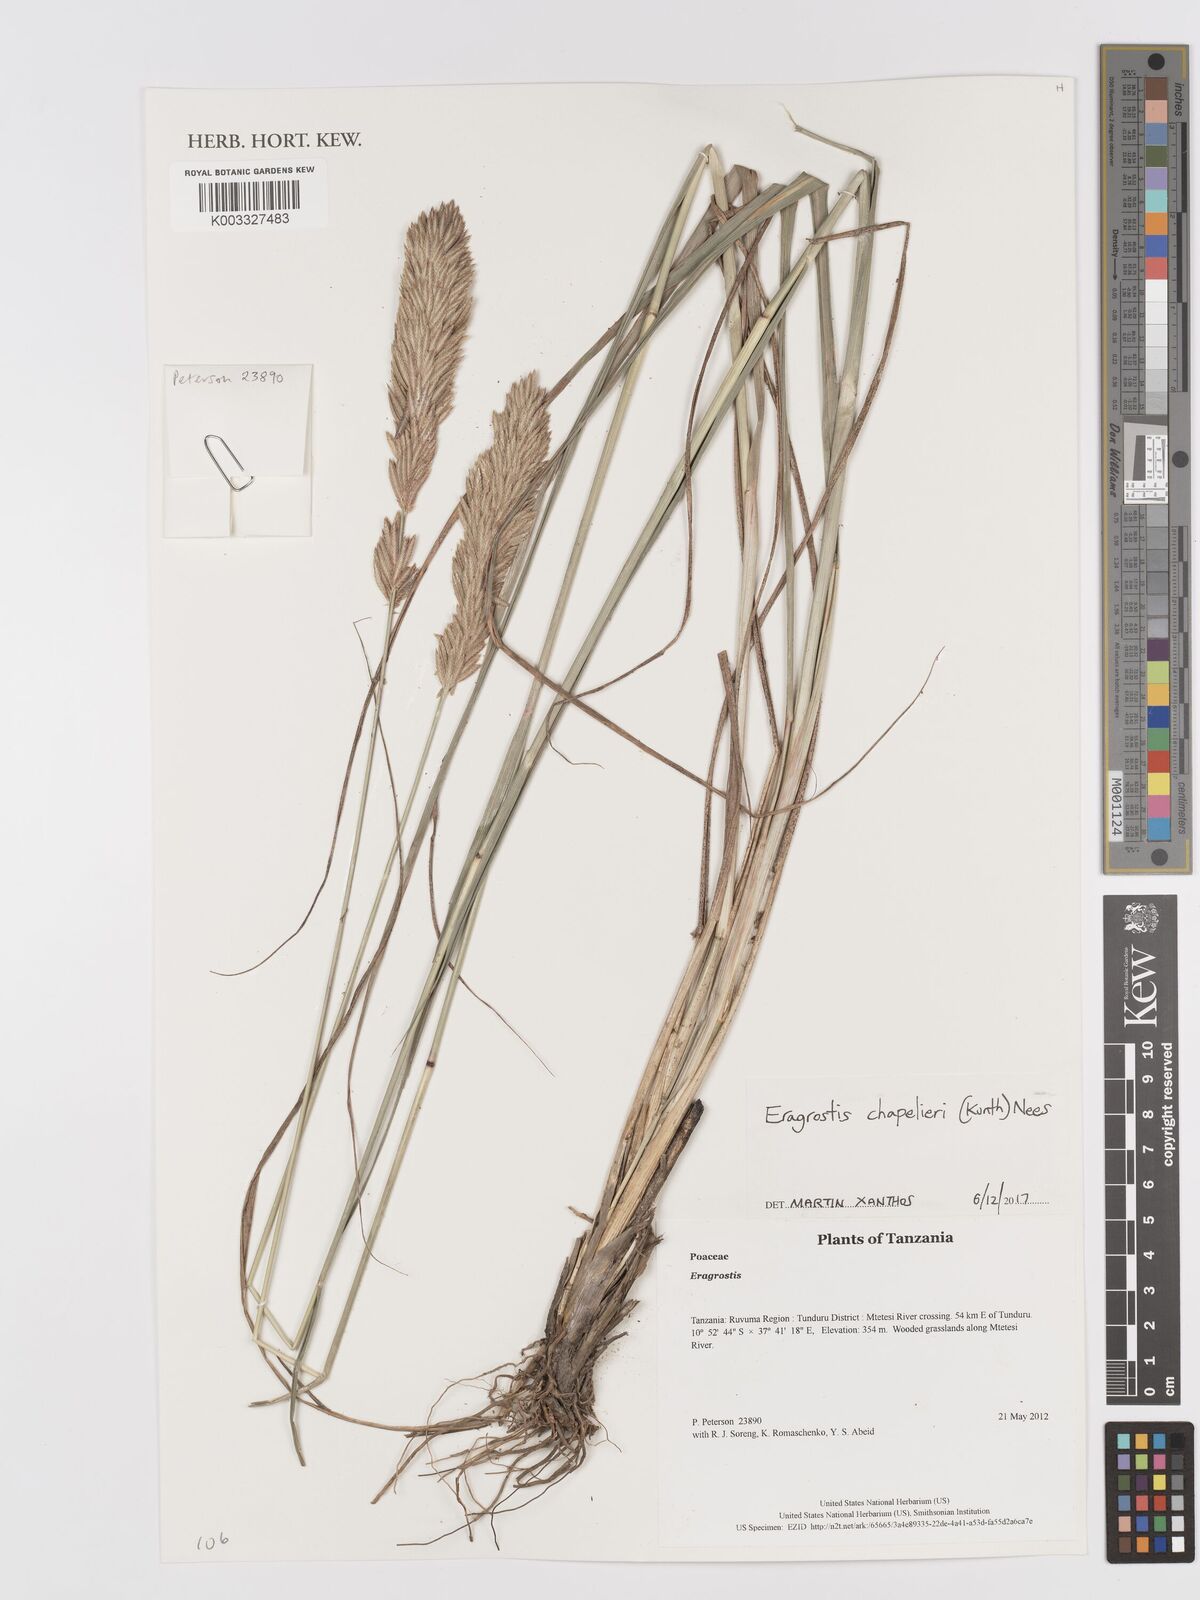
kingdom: Plantae
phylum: Tracheophyta
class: Liliopsida
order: Poales
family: Poaceae
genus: Eragrostis
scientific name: Eragrostis chapelieri
